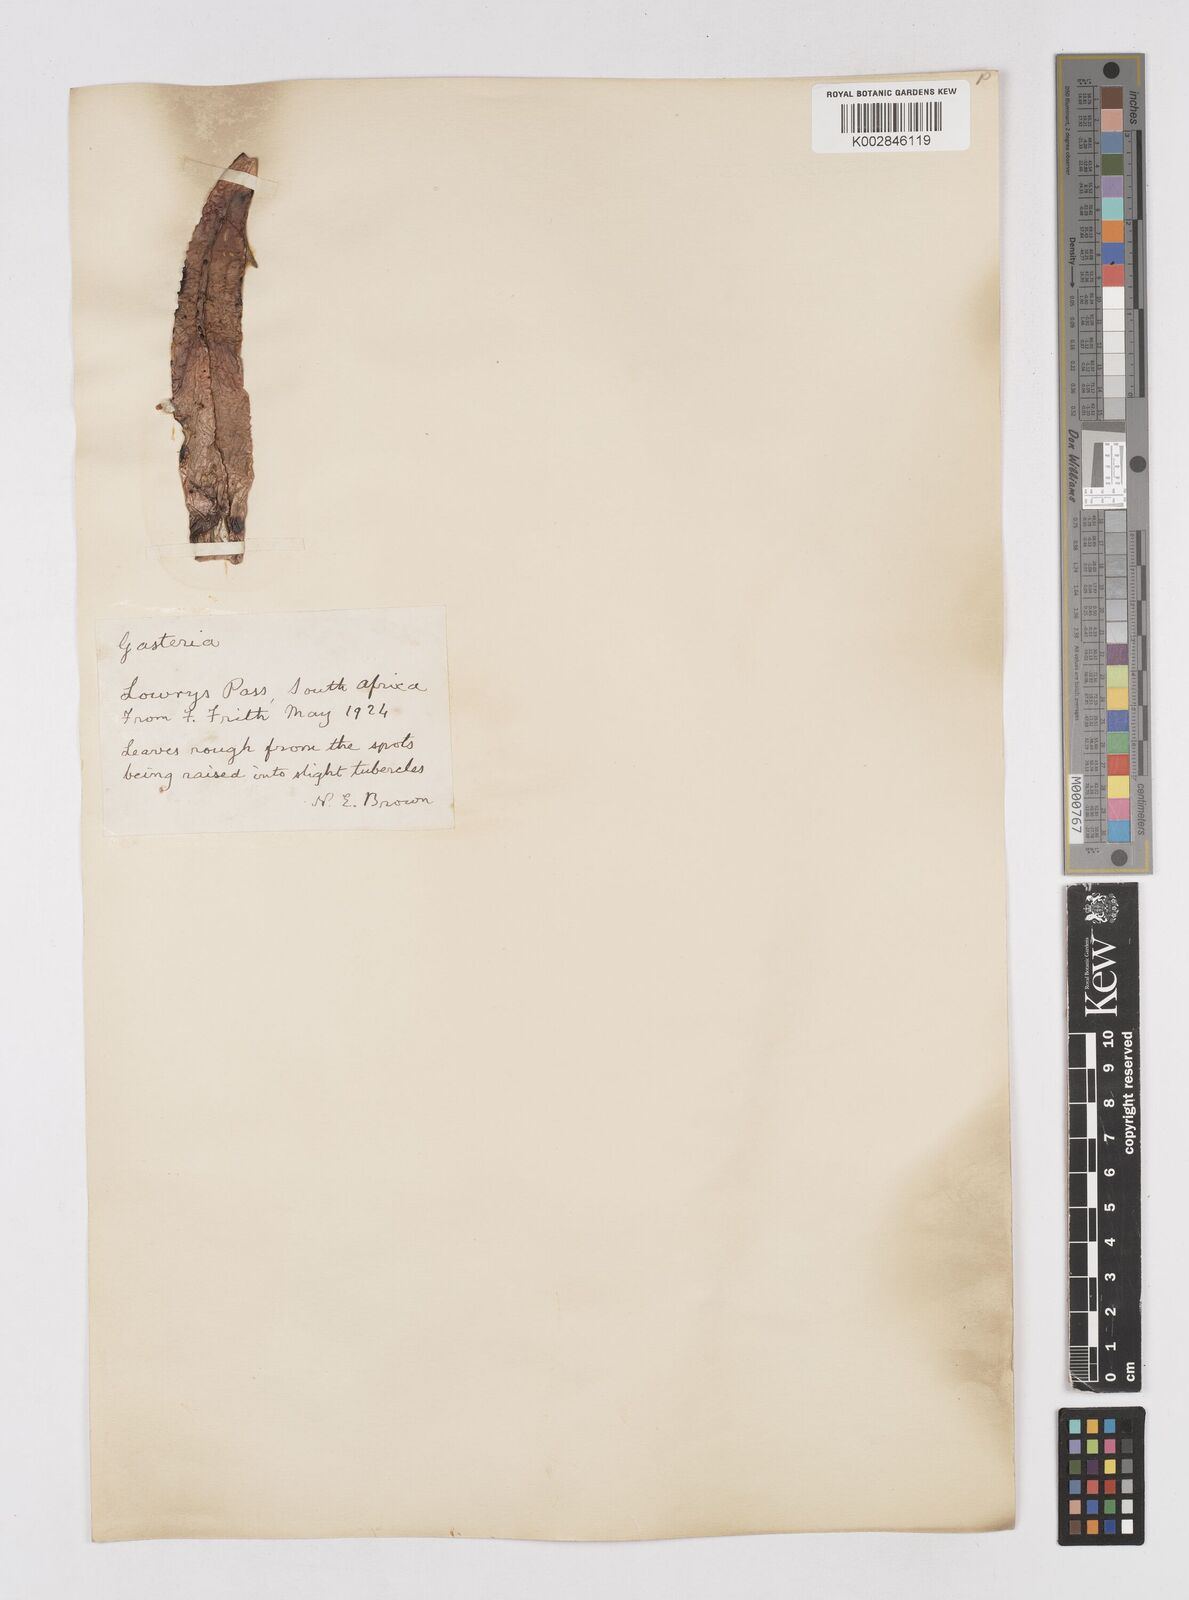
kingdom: Plantae
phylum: Tracheophyta
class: Liliopsida
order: Asparagales
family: Asphodelaceae
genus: Gasteria
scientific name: Gasteria
